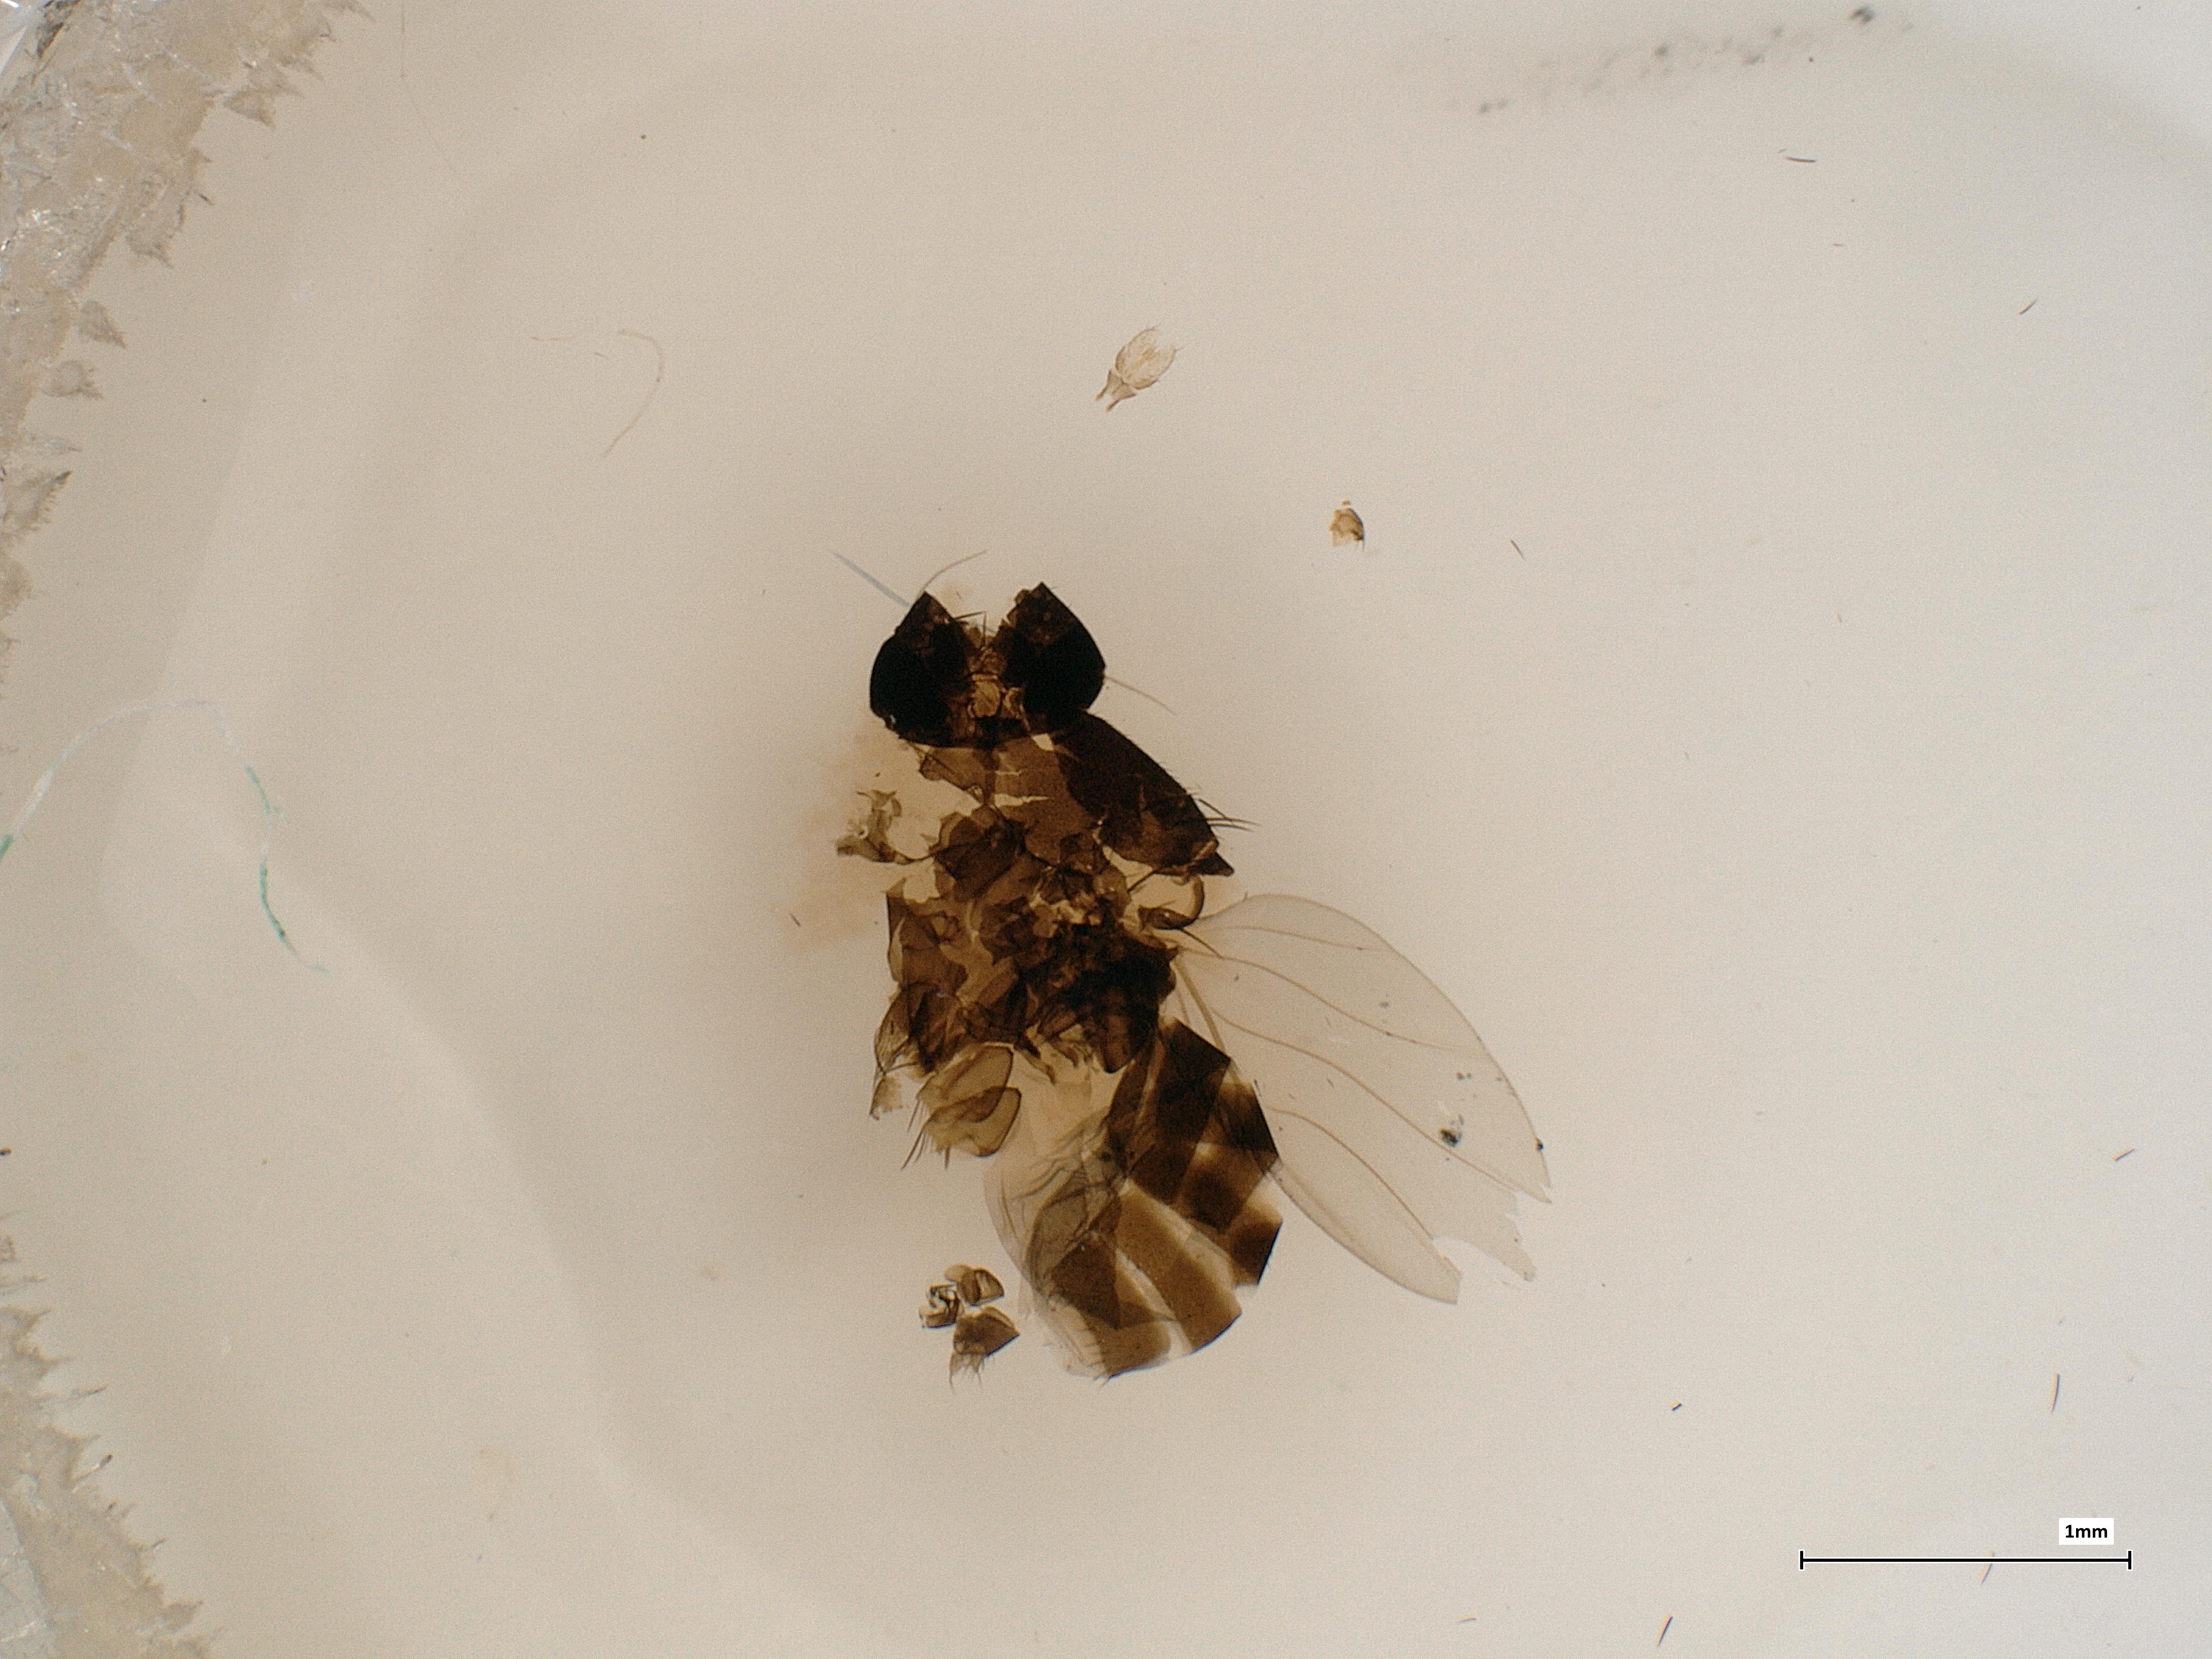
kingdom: Animalia
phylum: Arthropoda
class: Insecta
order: Diptera
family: Phoridae
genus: Megaselia
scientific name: Megaselia nectergata
